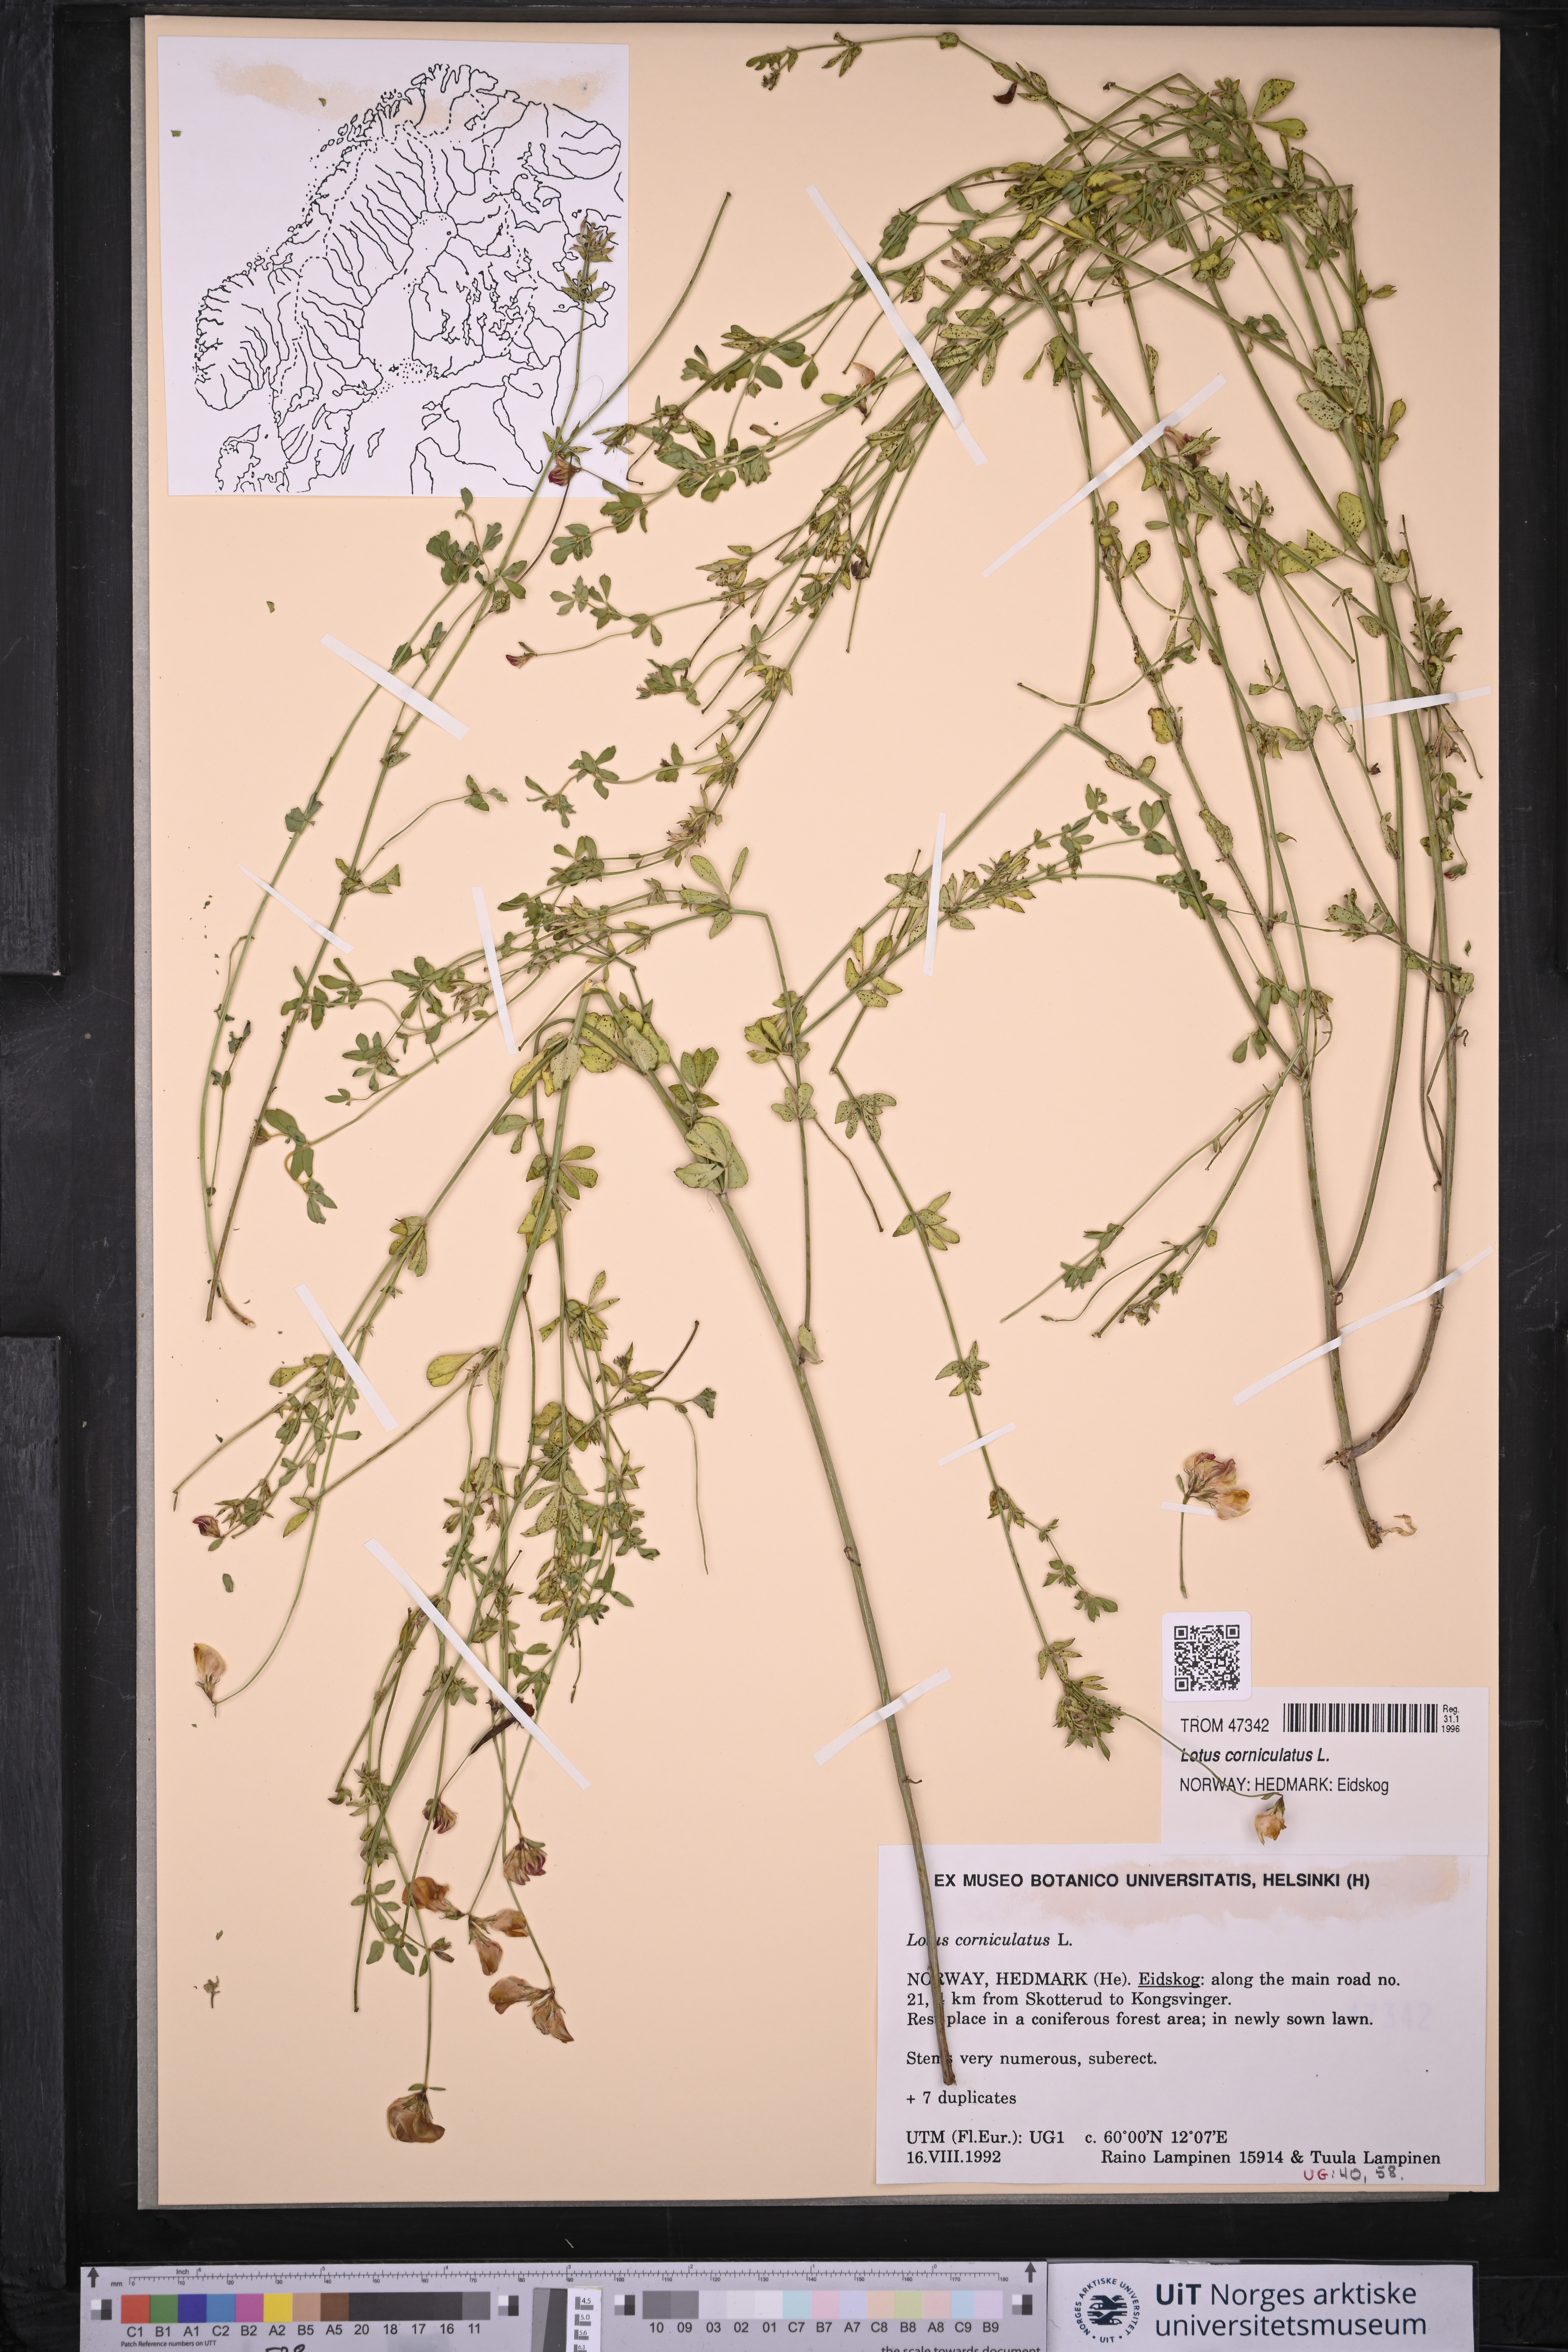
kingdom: Plantae
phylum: Tracheophyta
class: Magnoliopsida
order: Fabales
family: Fabaceae
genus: Lotus
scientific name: Lotus corniculatus
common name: Common bird's-foot-trefoil
